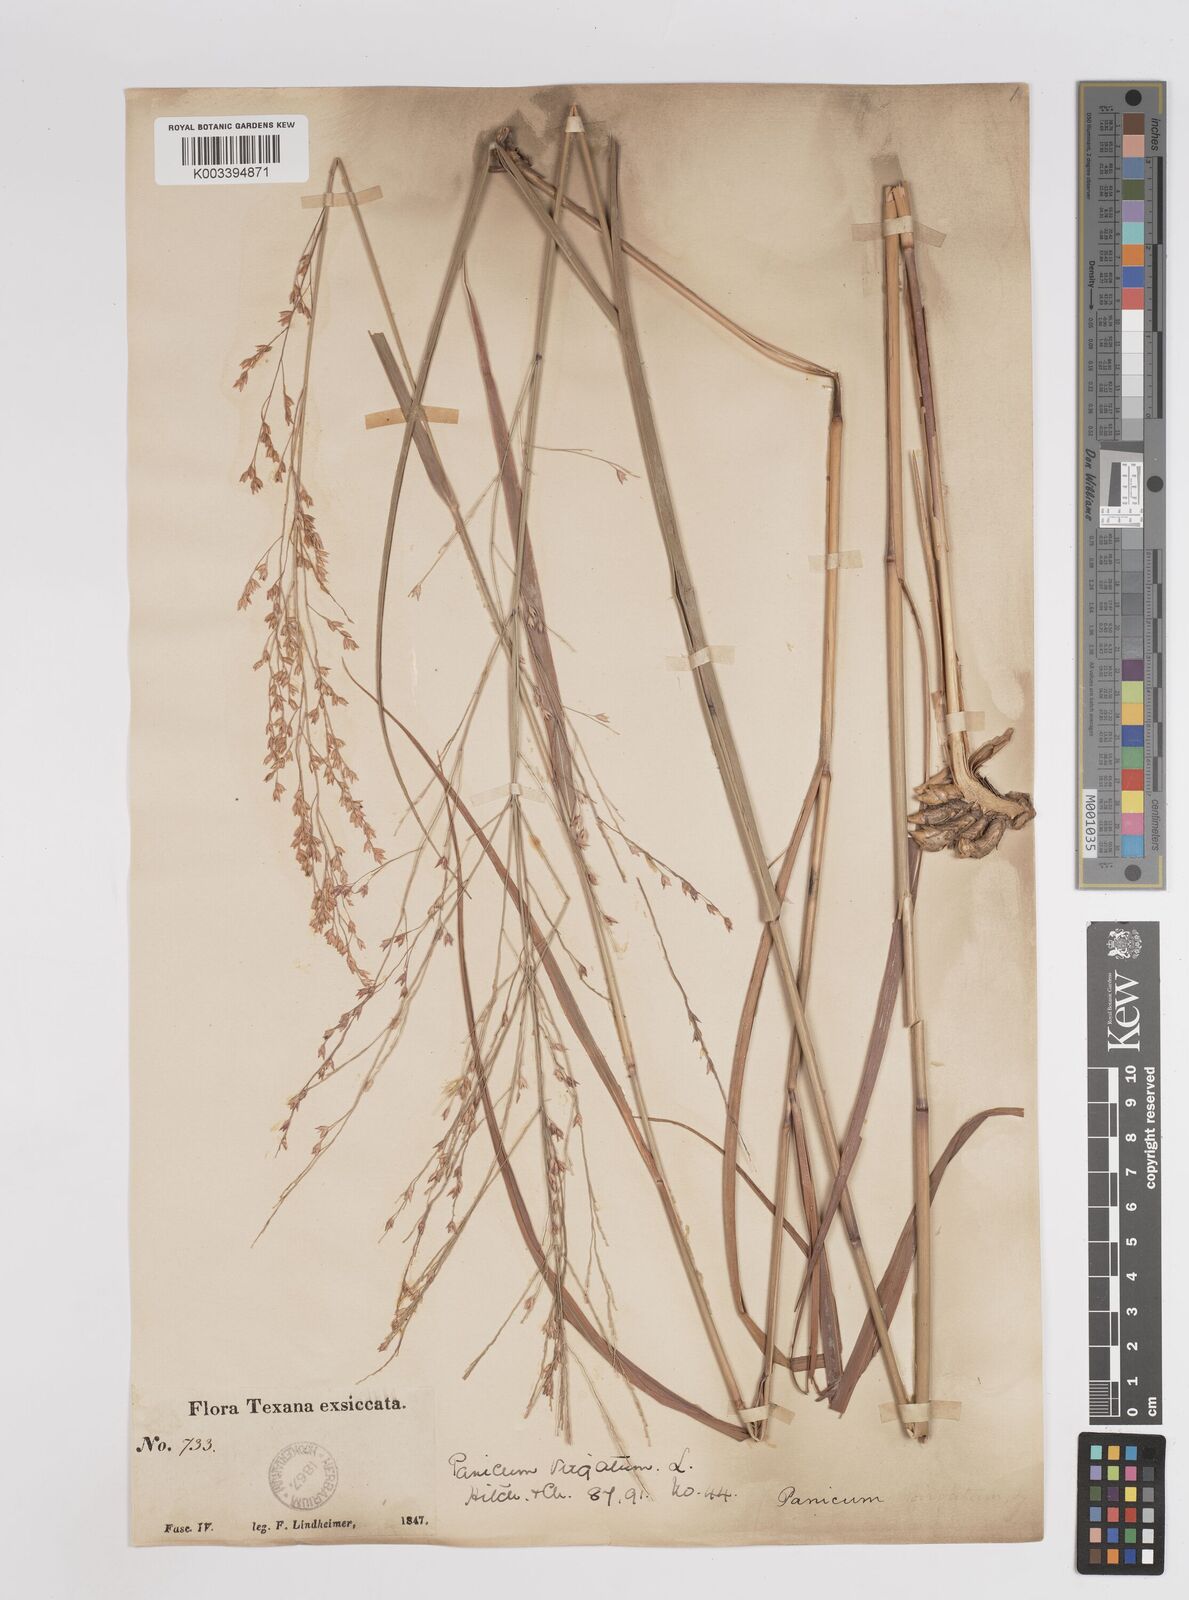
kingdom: Plantae
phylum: Tracheophyta
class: Liliopsida
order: Poales
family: Poaceae
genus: Panicum
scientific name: Panicum virgatum
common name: Switchgrass
